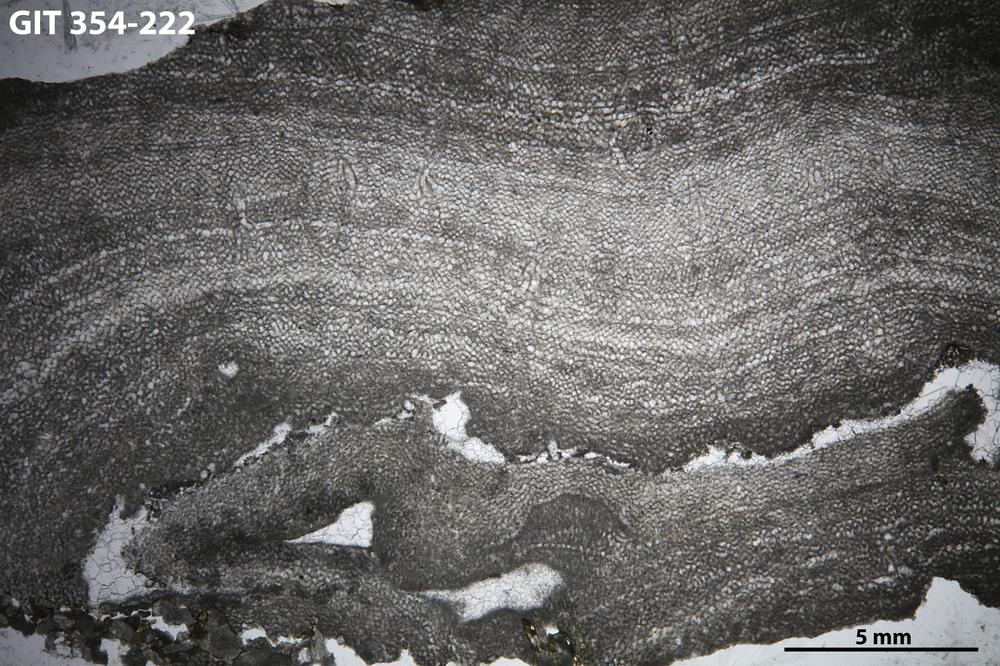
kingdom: Animalia
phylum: Porifera
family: Ecclimadictyidae
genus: Ecclimadictyon
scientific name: Ecclimadictyon macrotuberculatum
